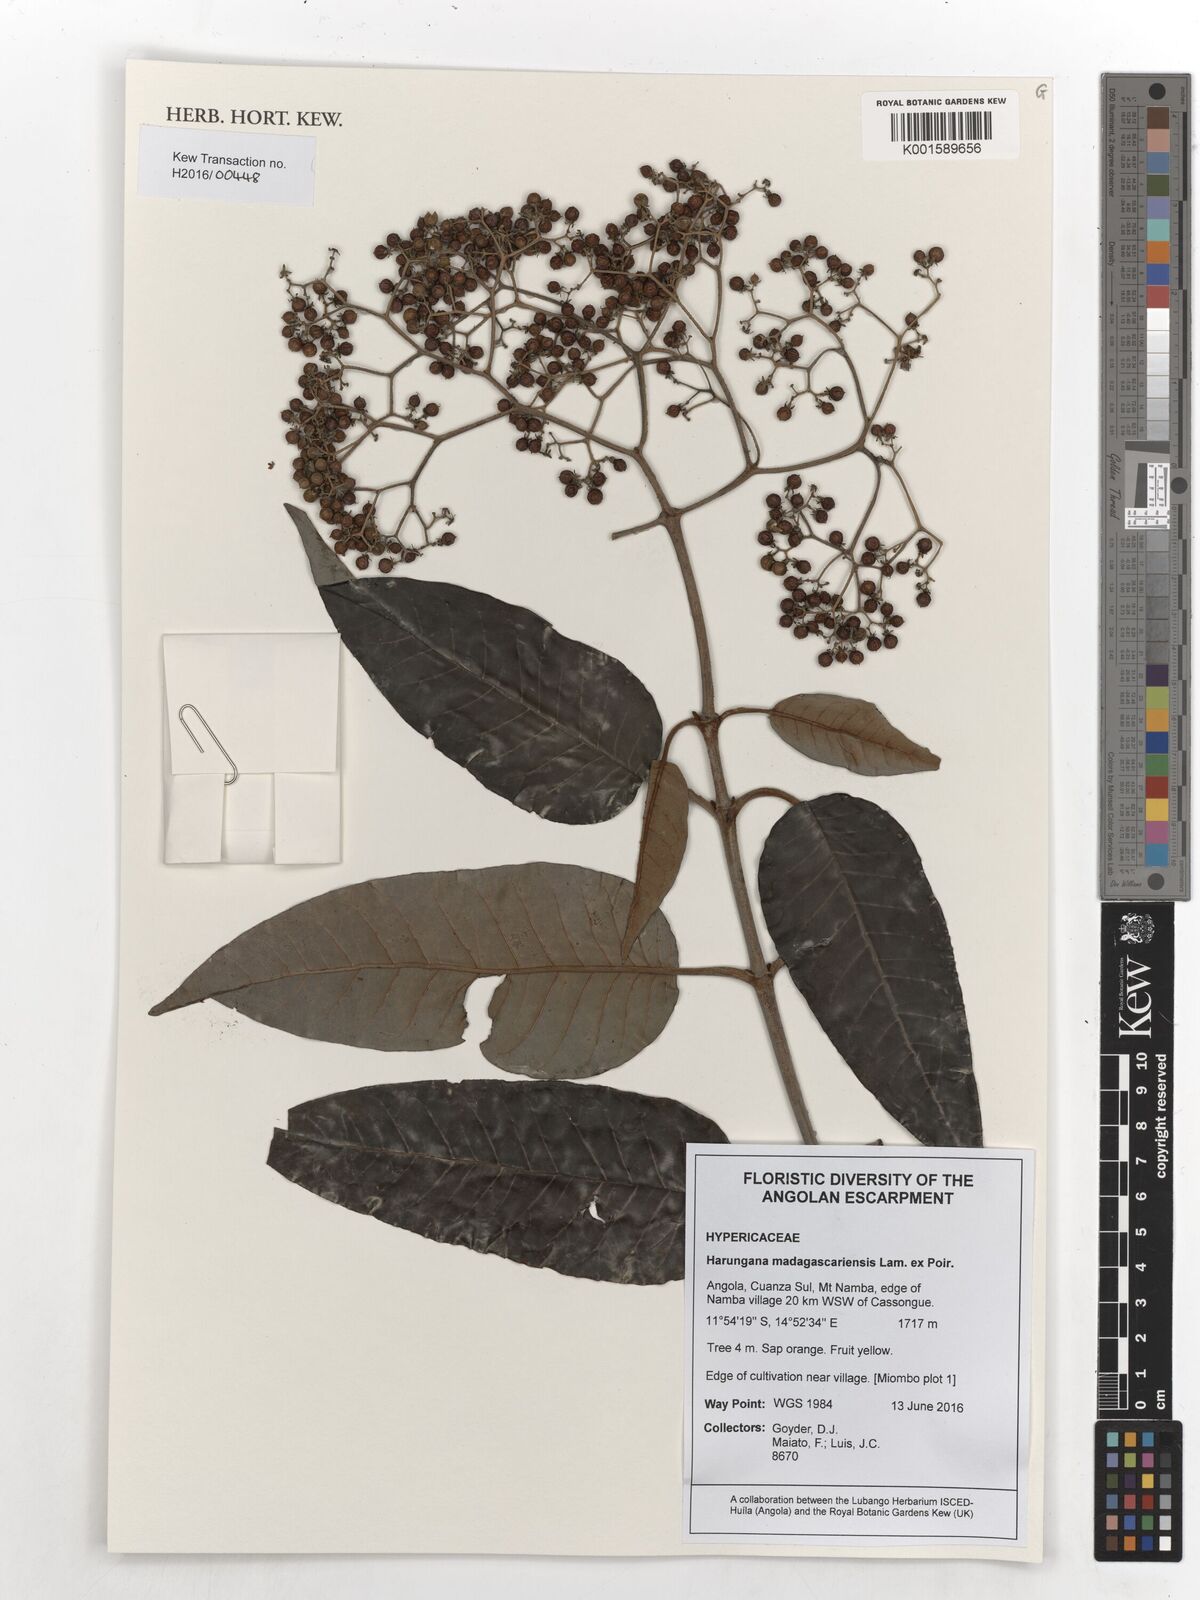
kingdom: Plantae
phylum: Tracheophyta
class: Magnoliopsida
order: Malpighiales
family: Hypericaceae
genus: Harungana
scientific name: Harungana madagascariensis
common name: Orange milktree
